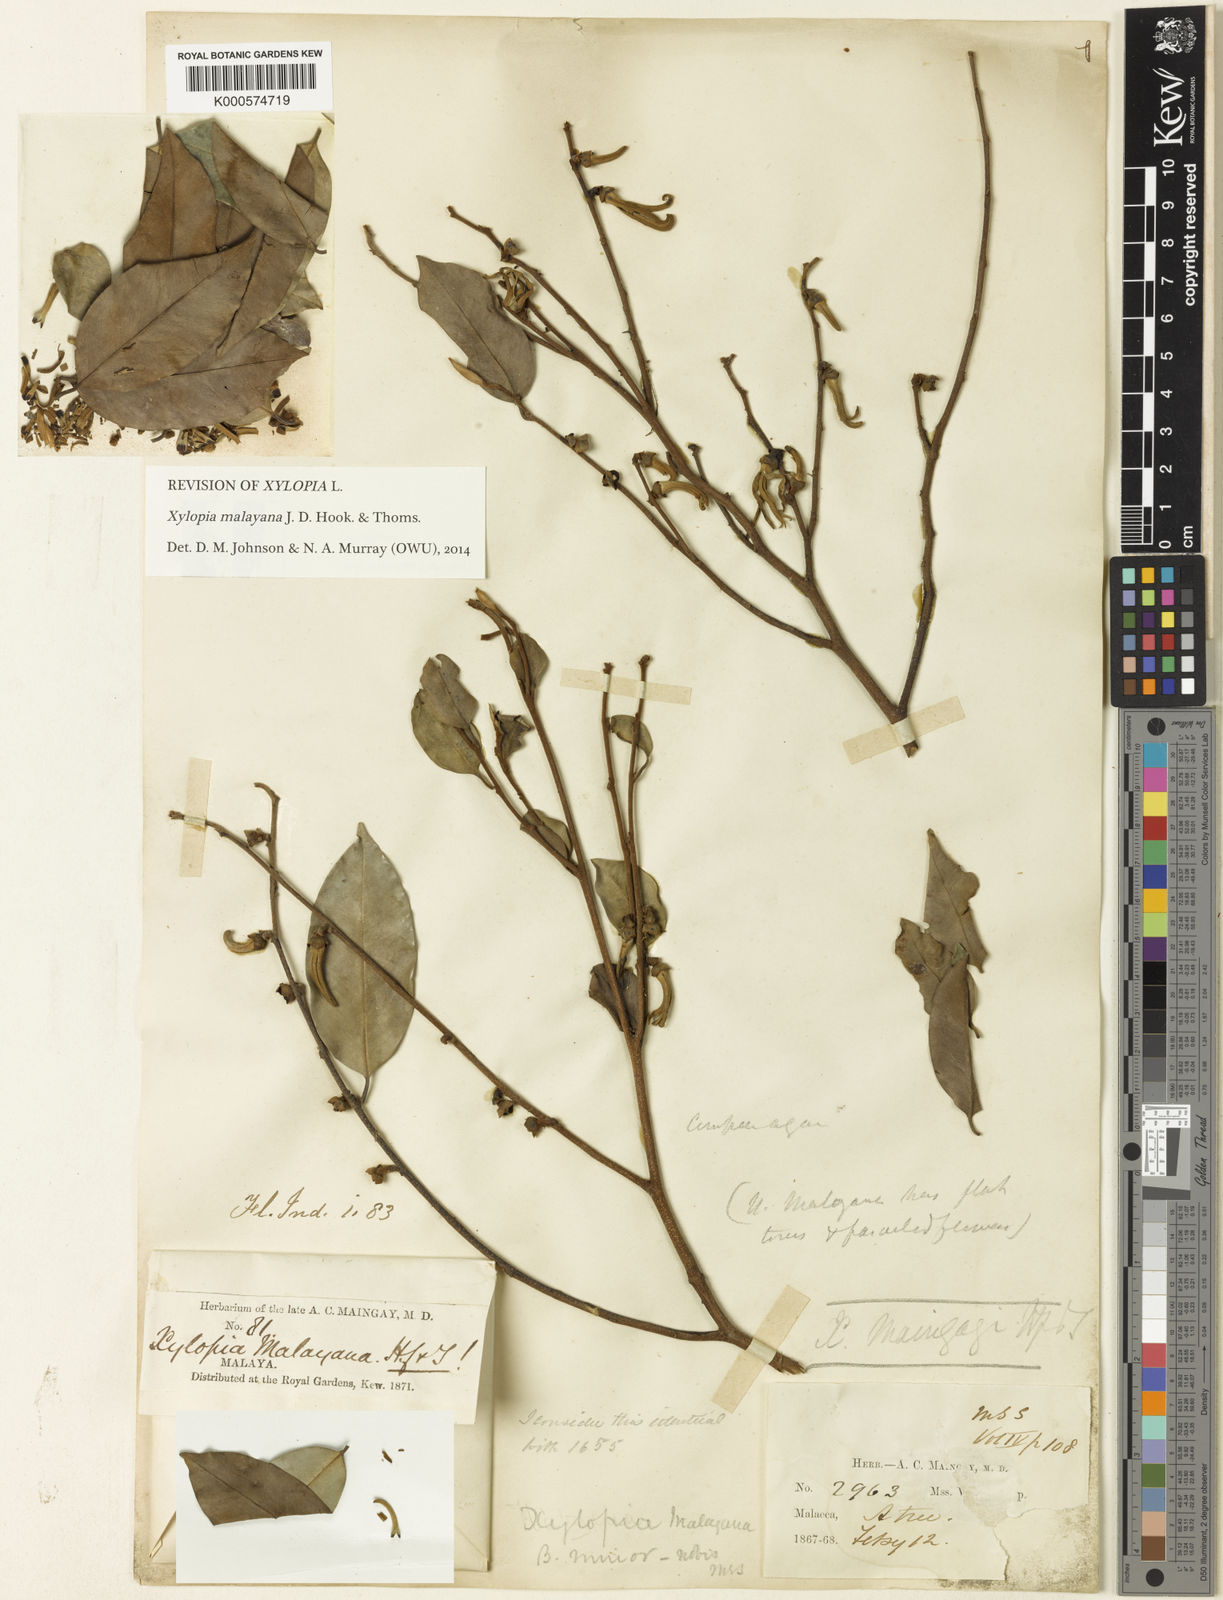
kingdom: Plantae
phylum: Tracheophyta
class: Magnoliopsida
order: Magnoliales
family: Annonaceae
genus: Xylopia
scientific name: Xylopia malayana
